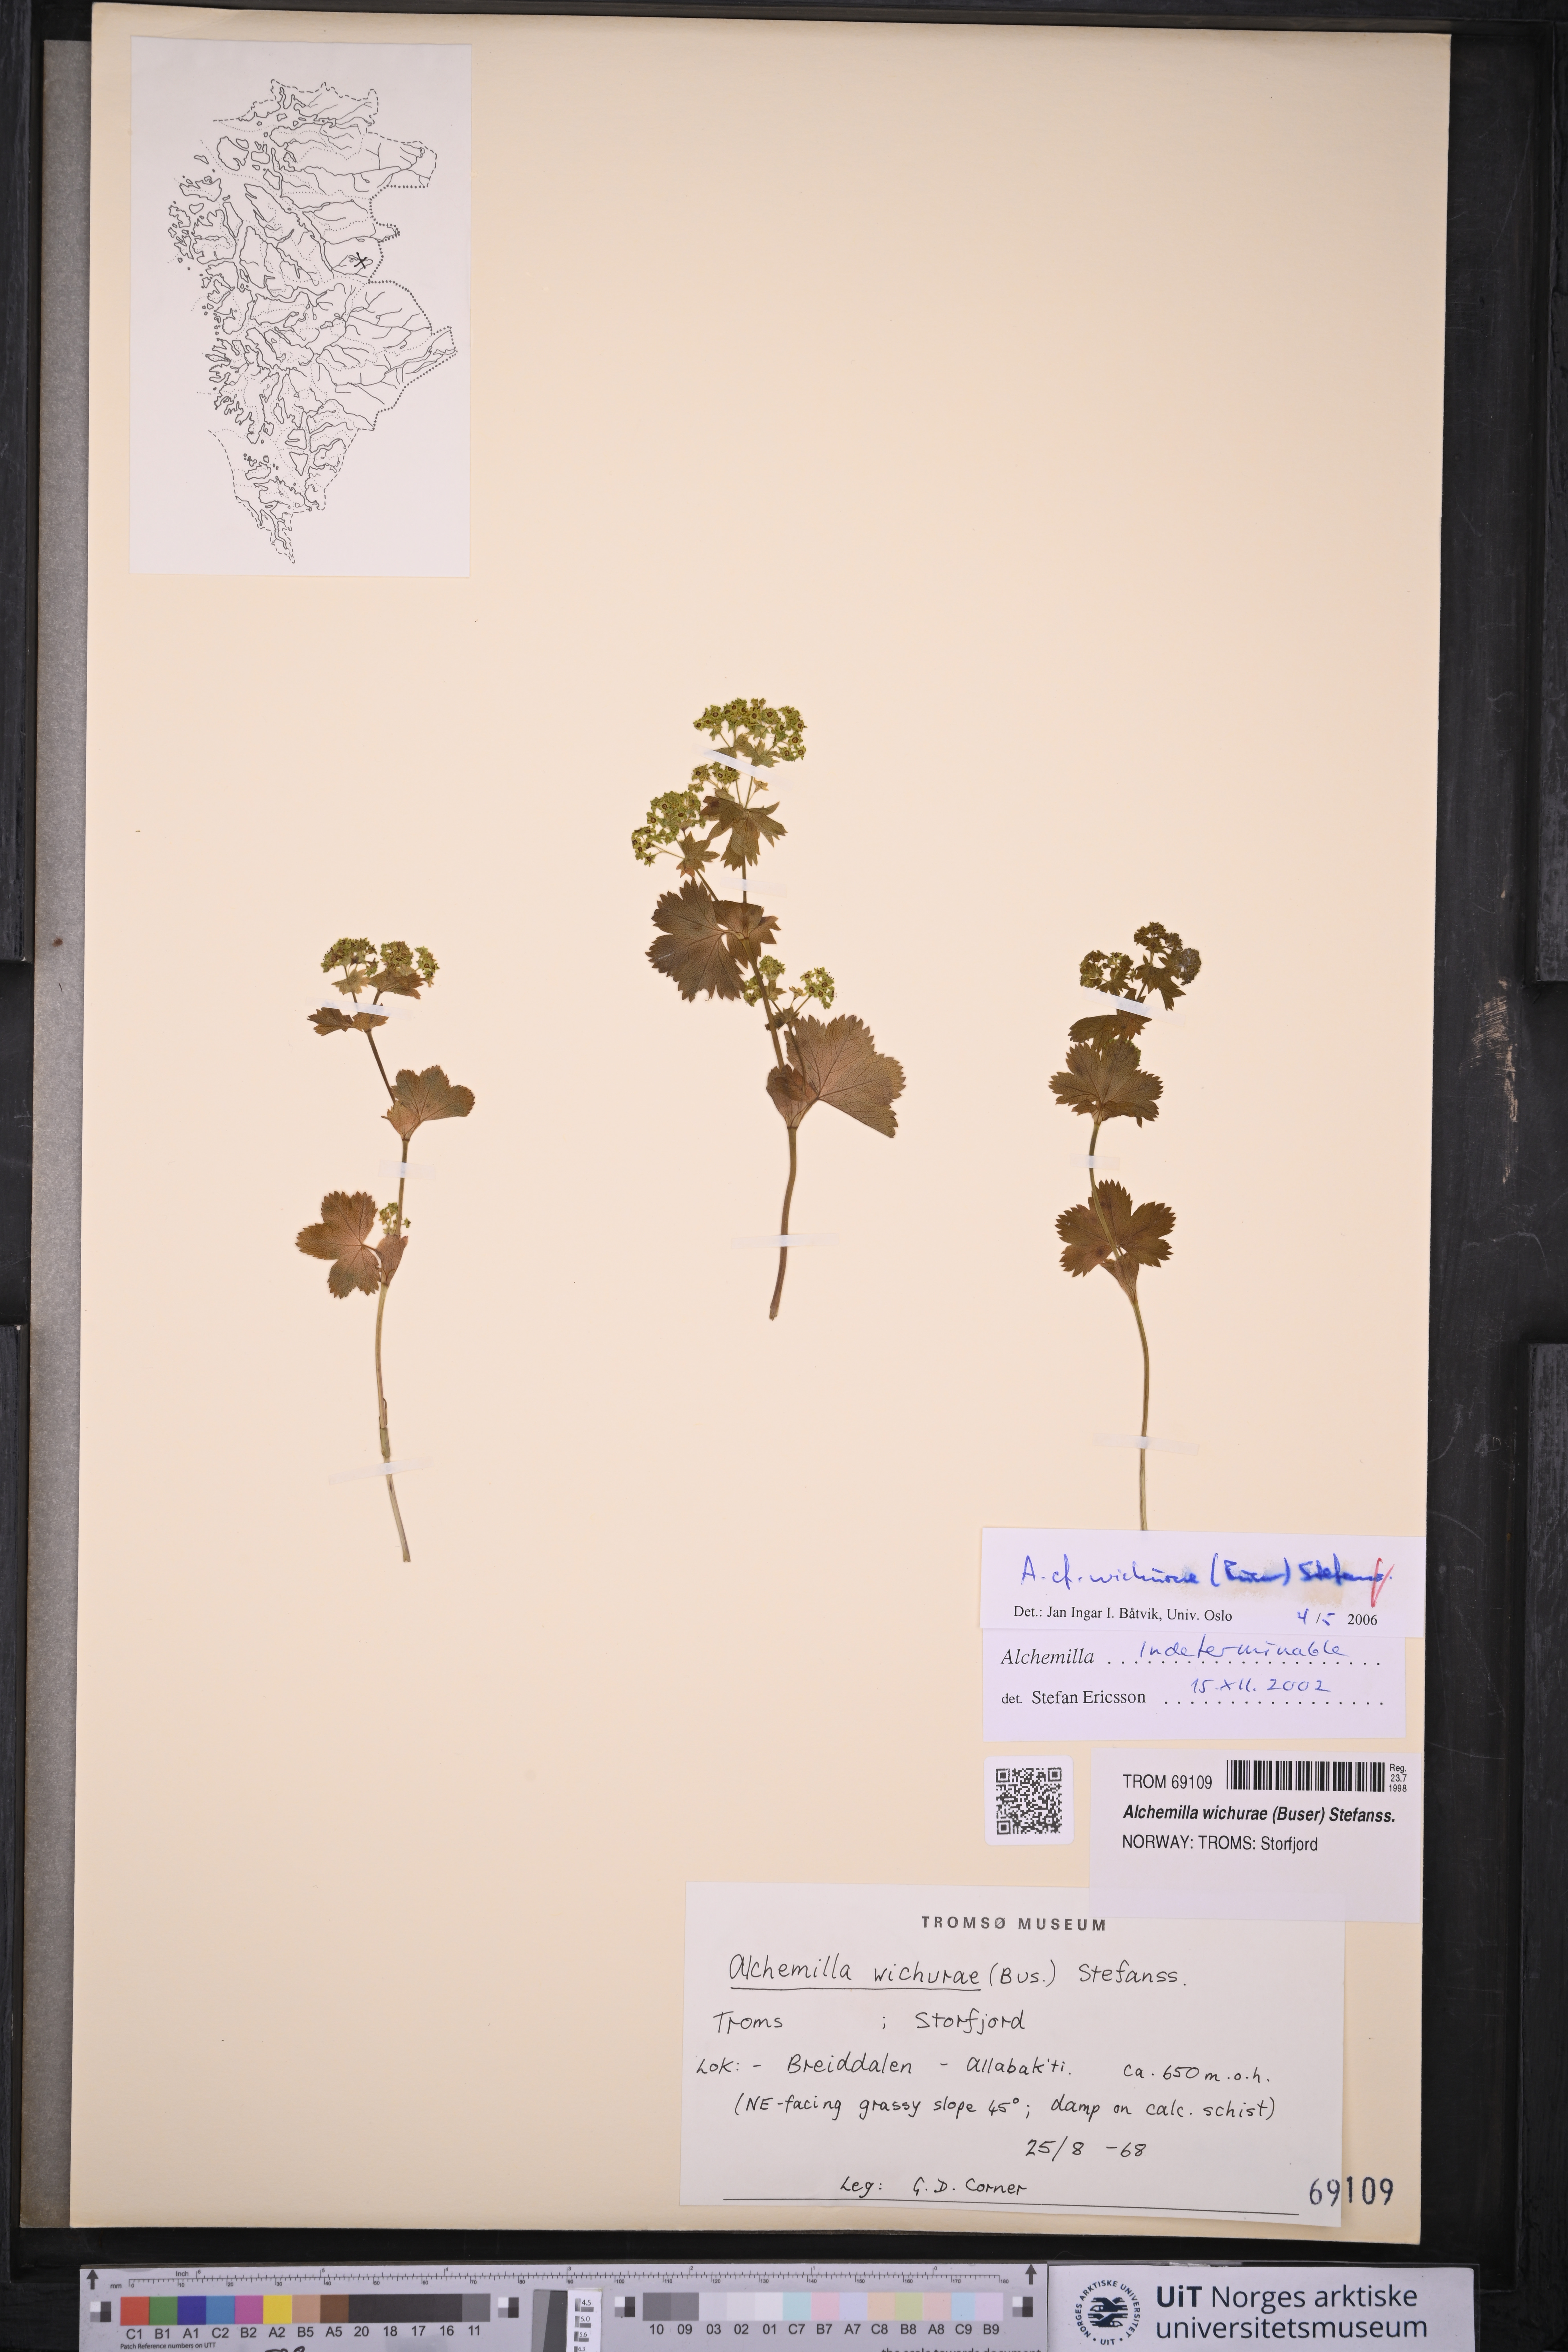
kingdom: Plantae
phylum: Tracheophyta
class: Magnoliopsida
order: Rosales
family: Rosaceae
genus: Alchemilla
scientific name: Alchemilla wichurae
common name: Rock lady's mantle
